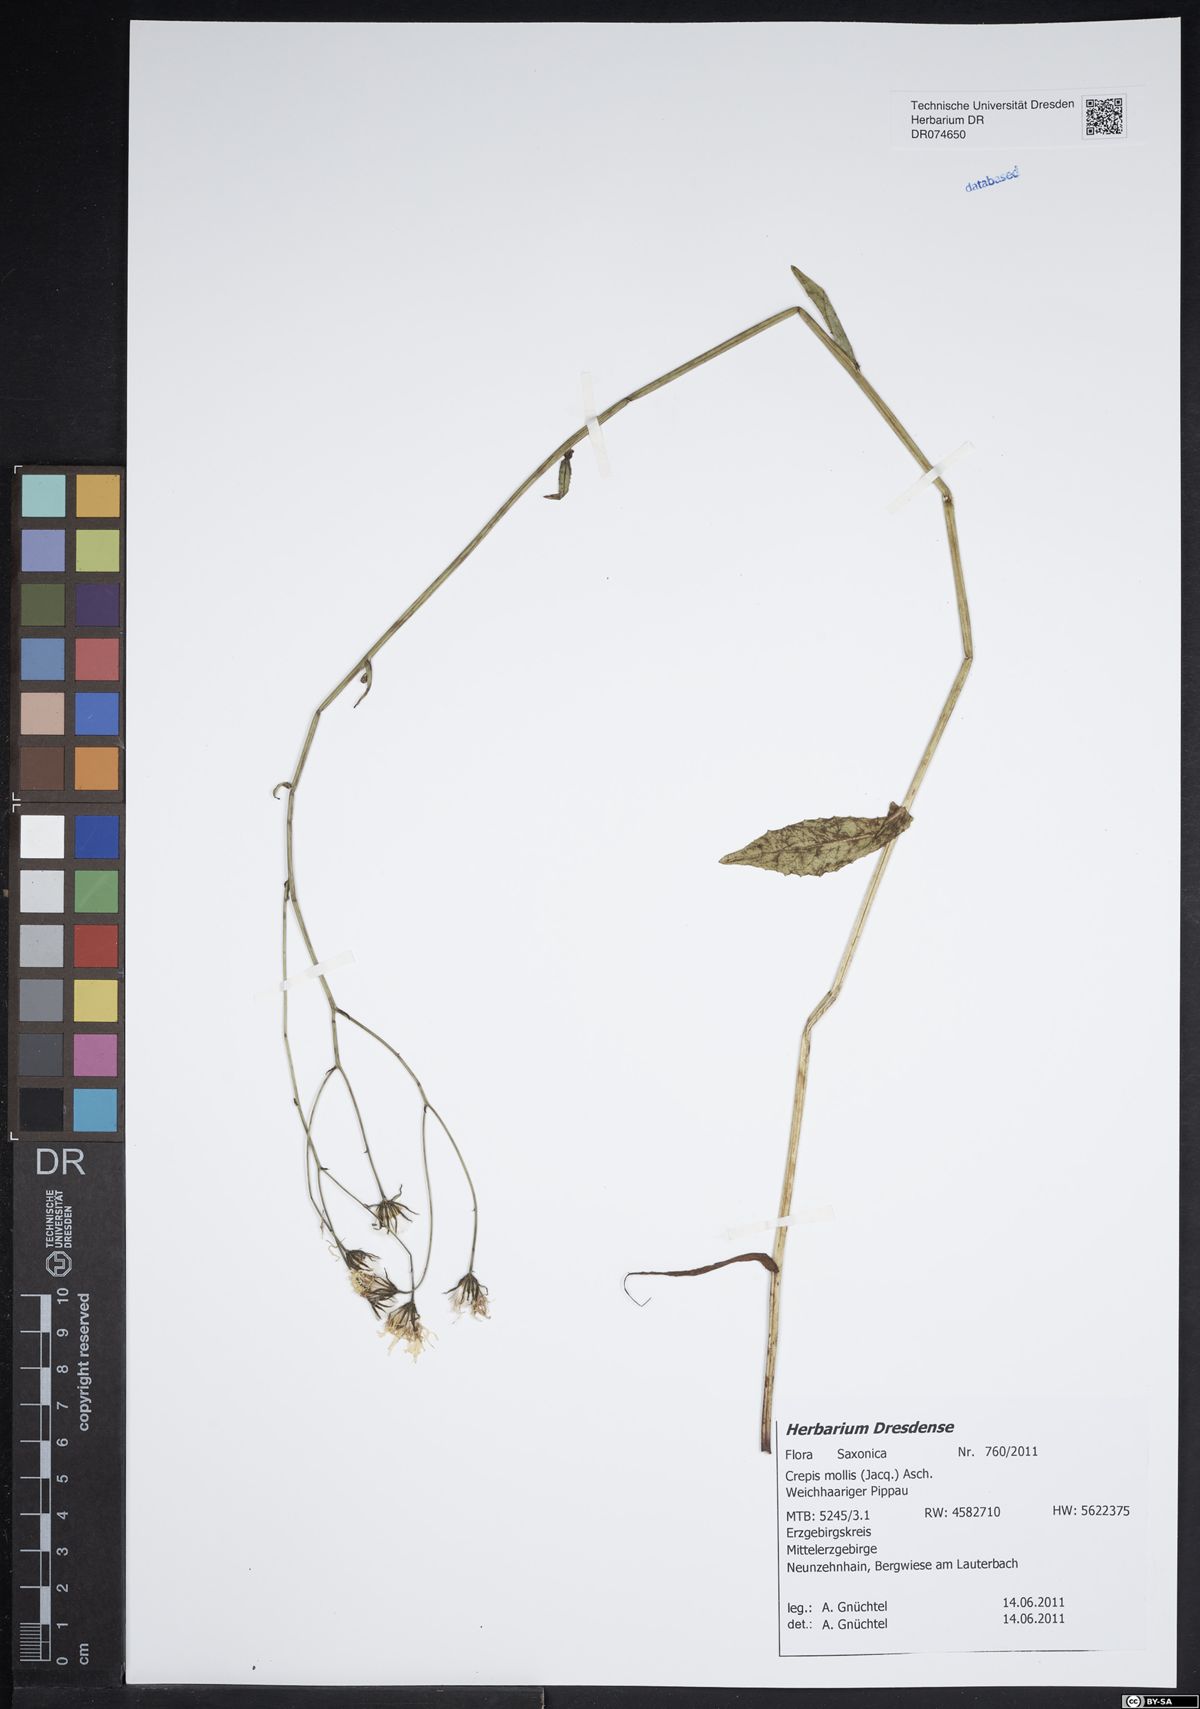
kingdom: Plantae
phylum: Tracheophyta
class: Magnoliopsida
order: Asterales
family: Asteraceae
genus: Crepis
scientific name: Crepis biennis
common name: Rough hawk's-beard
